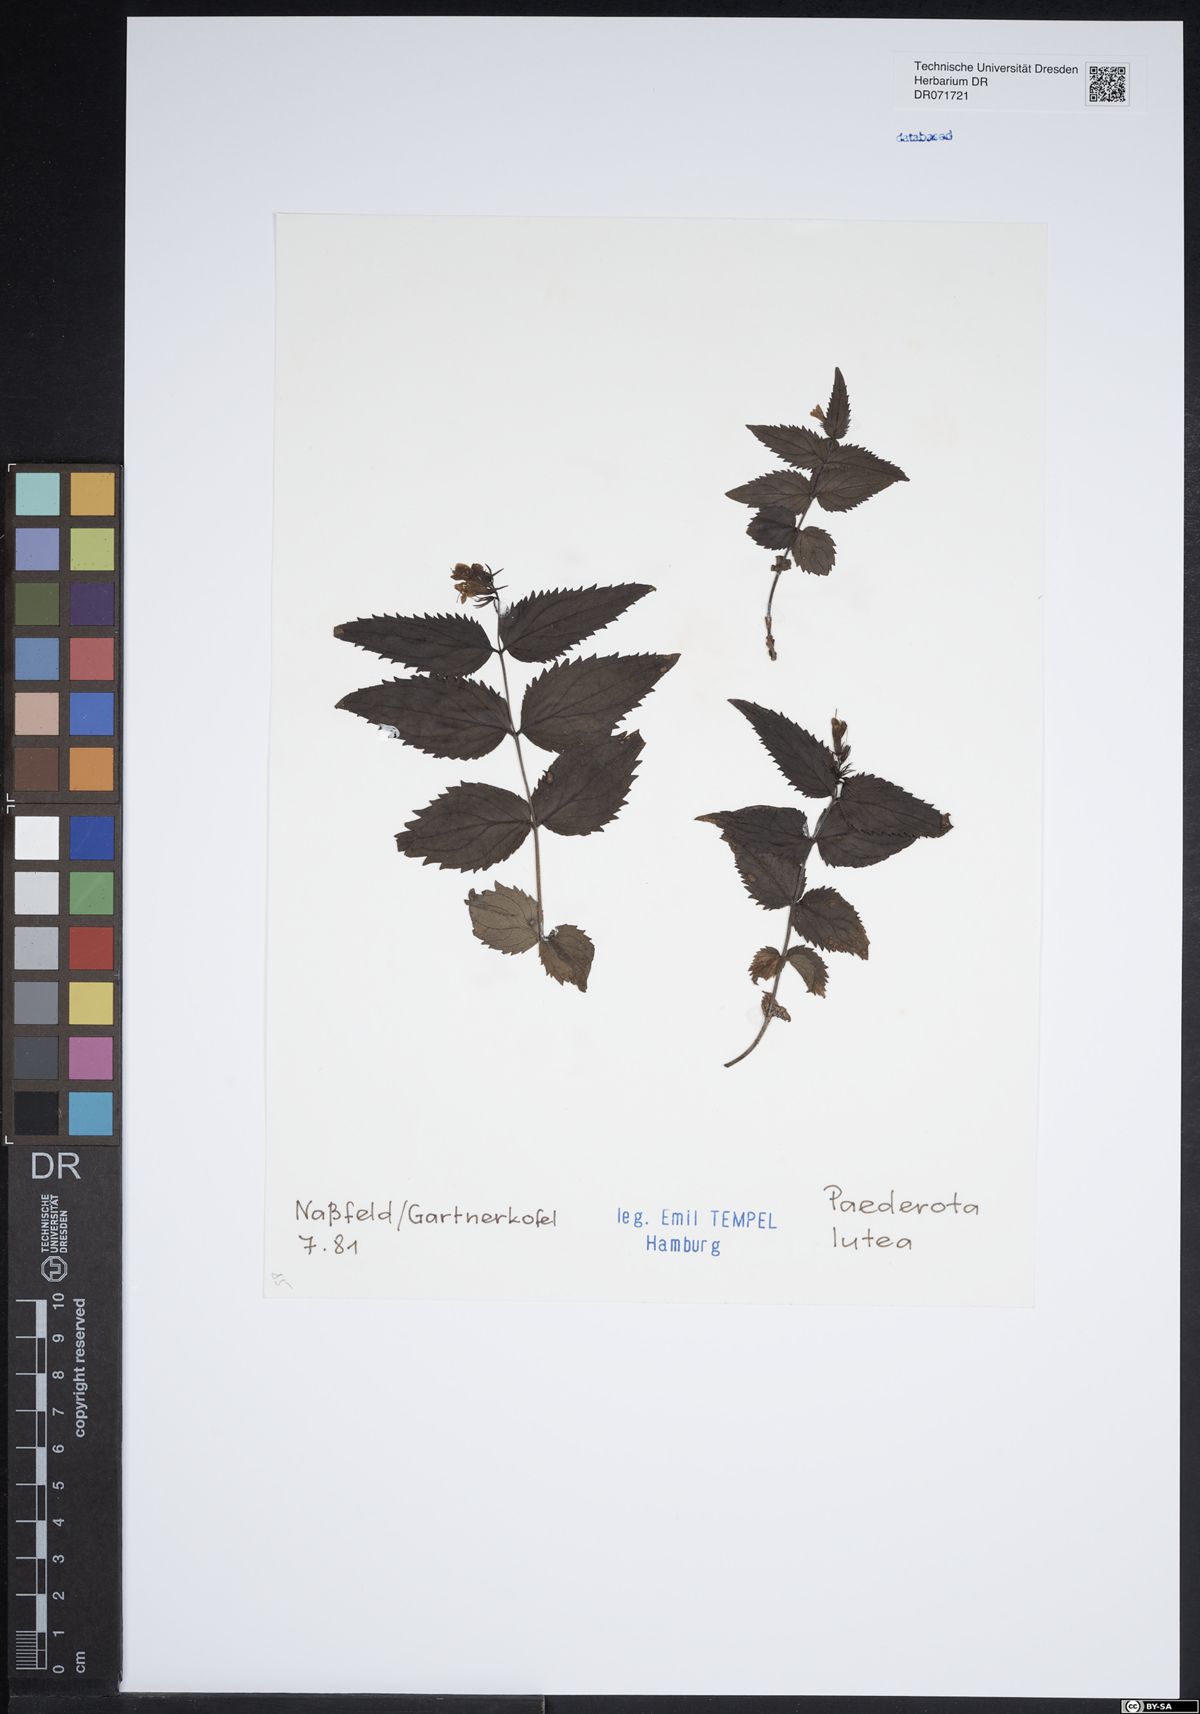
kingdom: Plantae
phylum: Tracheophyta
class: Magnoliopsida
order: Lamiales
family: Plantaginaceae
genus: Paederota
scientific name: Paederota lutea
